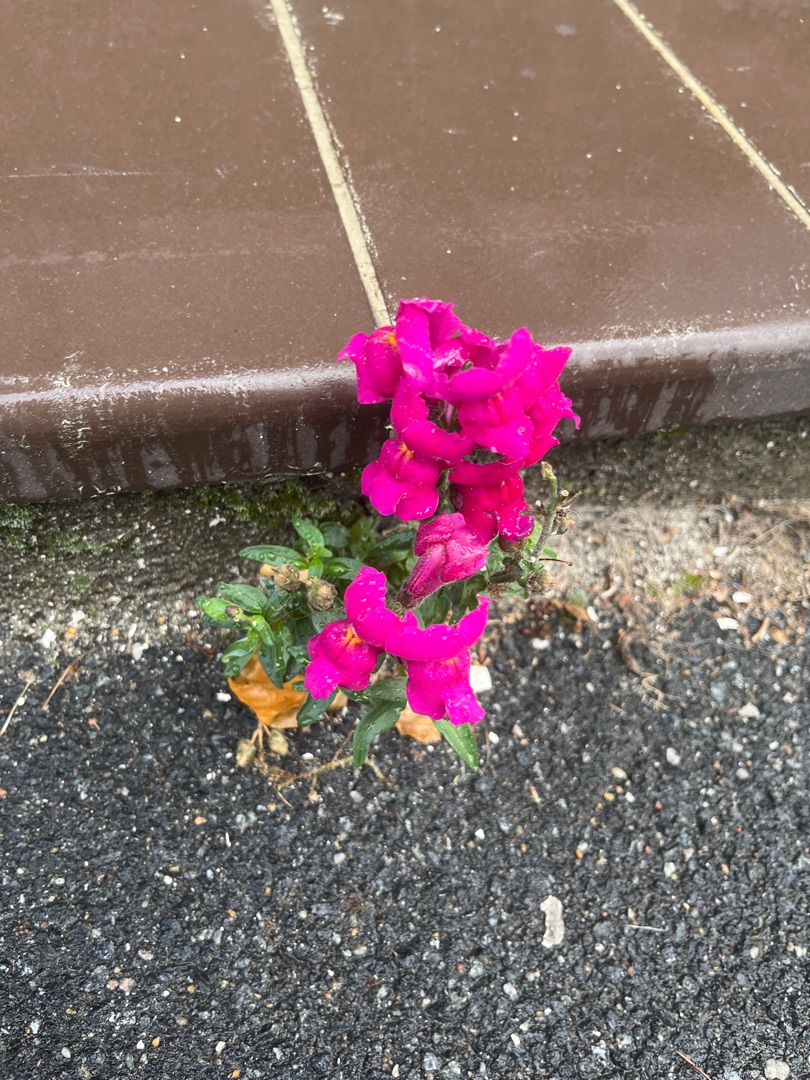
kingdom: Plantae
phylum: Tracheophyta
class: Magnoliopsida
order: Lamiales
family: Plantaginaceae
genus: Antirrhinum
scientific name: Antirrhinum majus
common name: Have-løvemund
